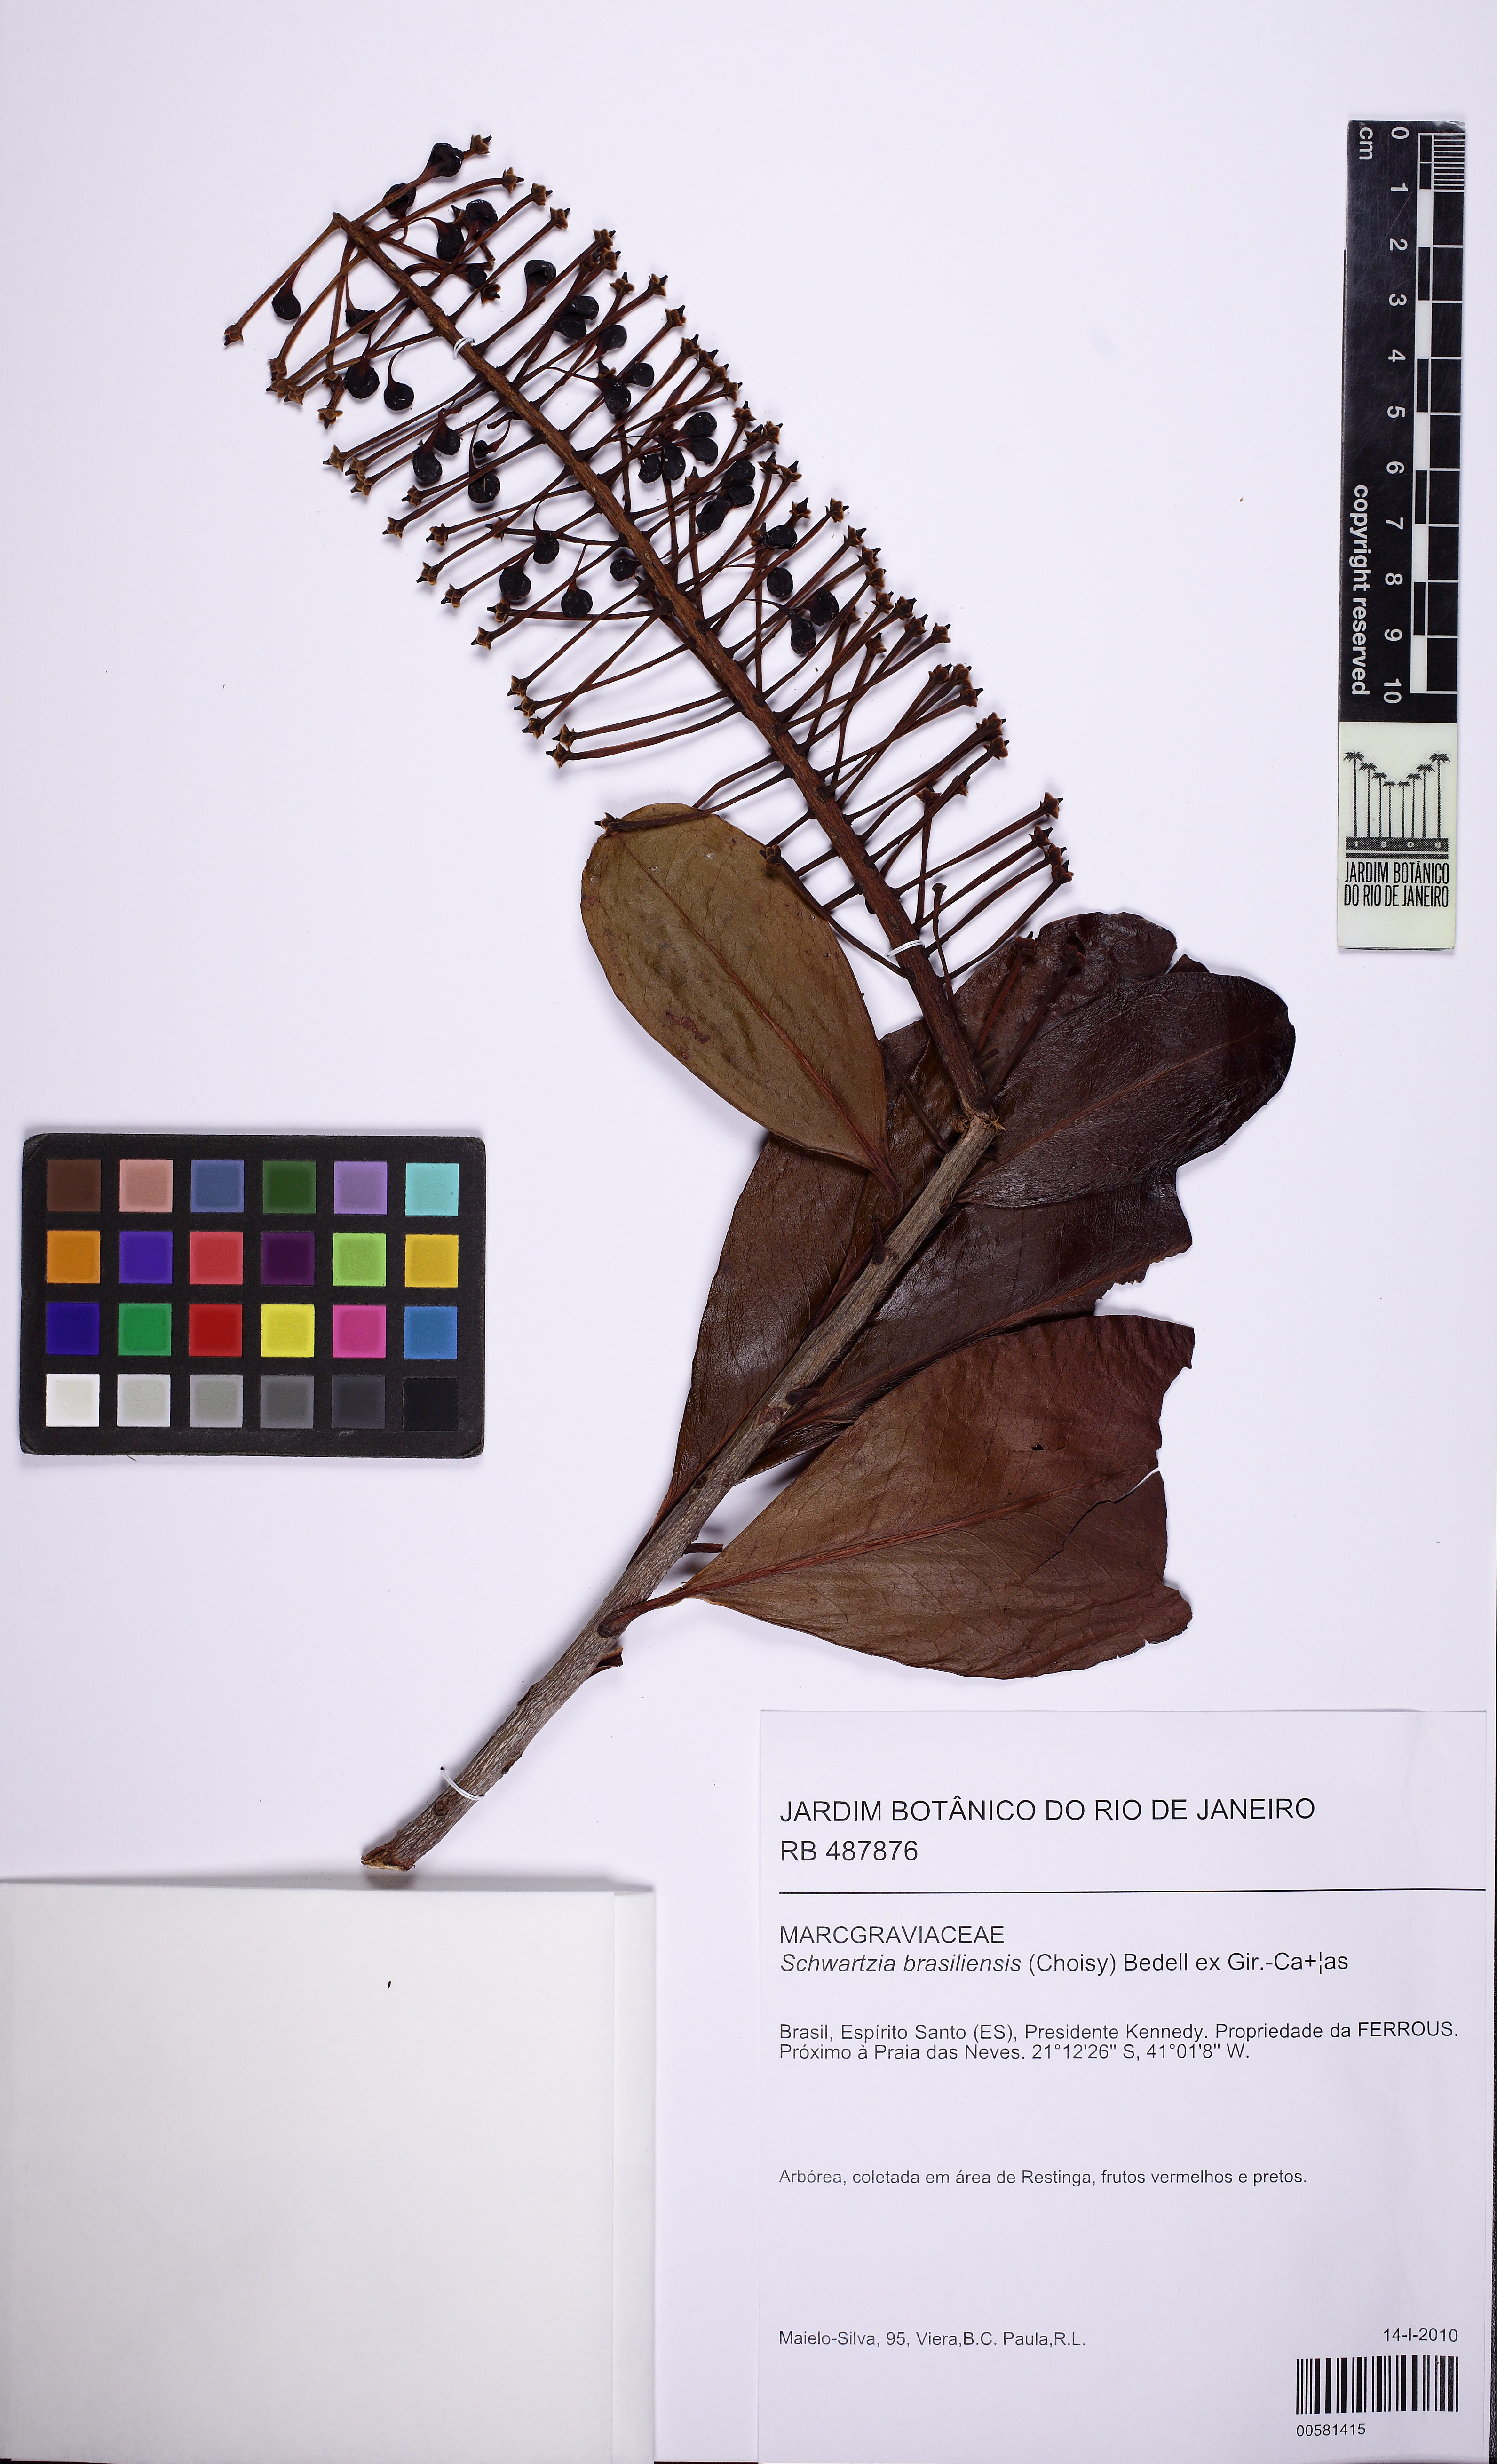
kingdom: Plantae
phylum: Tracheophyta
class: Magnoliopsida
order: Ericales
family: Marcgraviaceae
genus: Schwartzia
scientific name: Schwartzia brasiliensis
